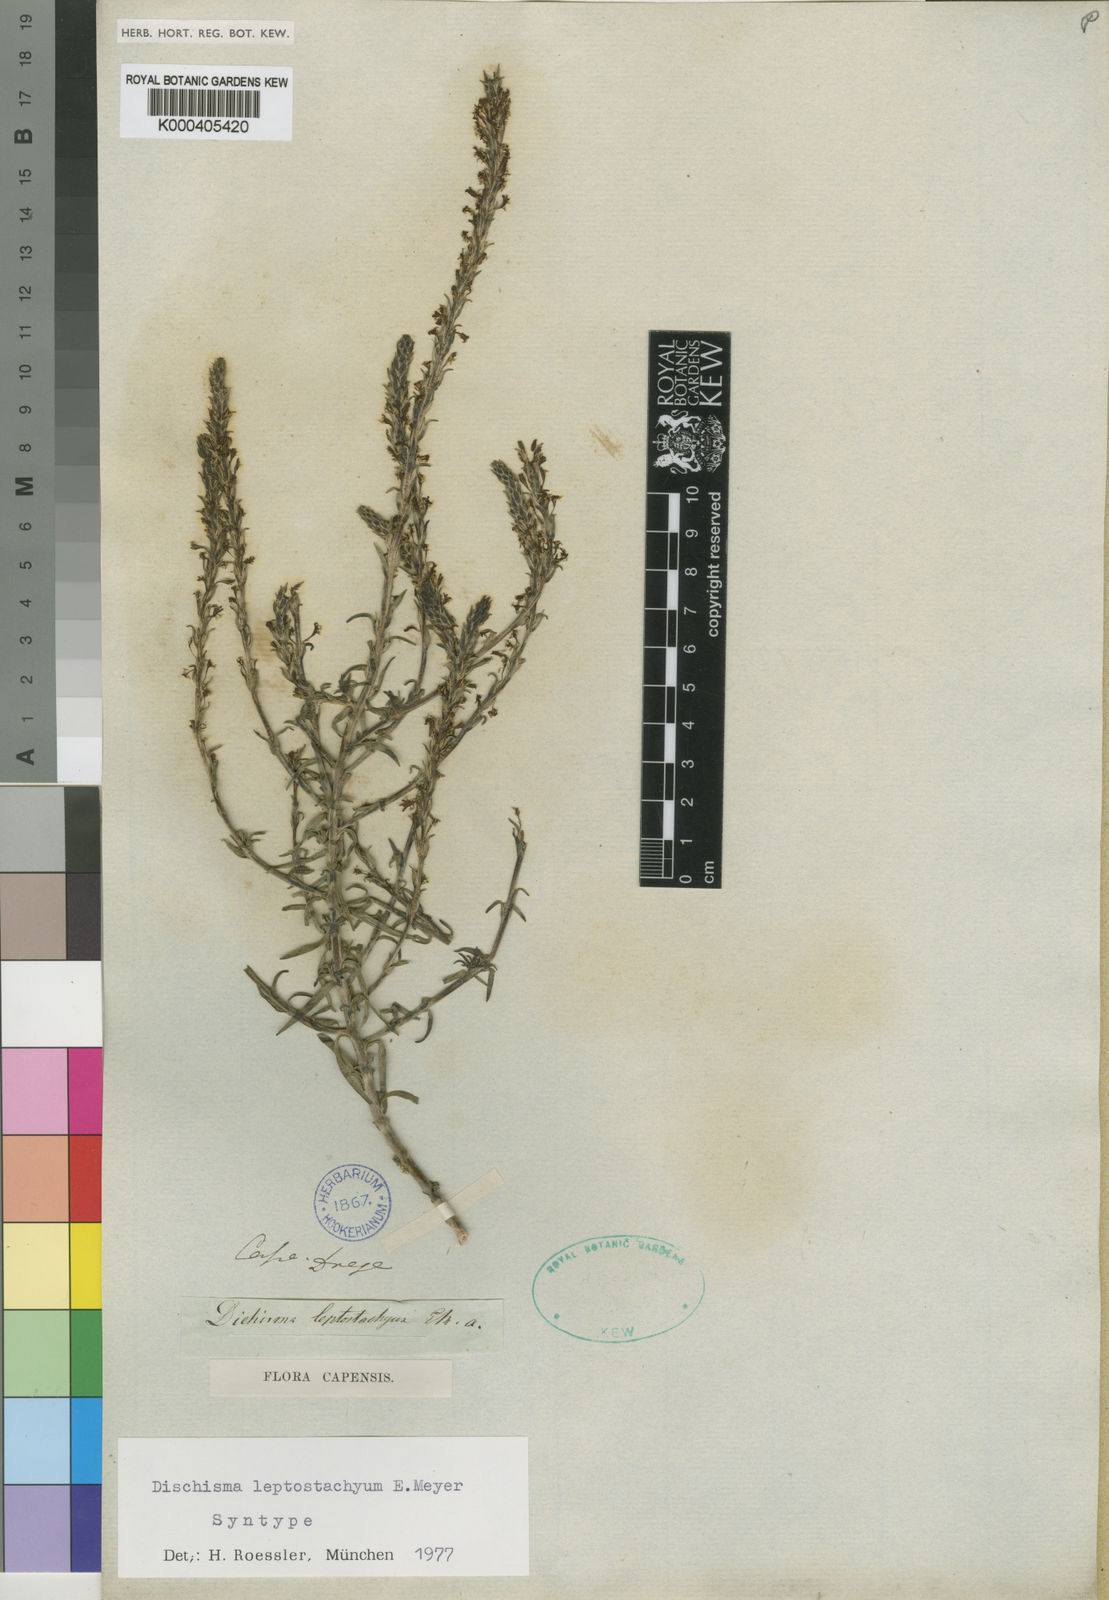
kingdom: Plantae
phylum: Tracheophyta
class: Magnoliopsida
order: Lamiales
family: Scrophulariaceae
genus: Dischisma
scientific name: Dischisma leptostachyum
